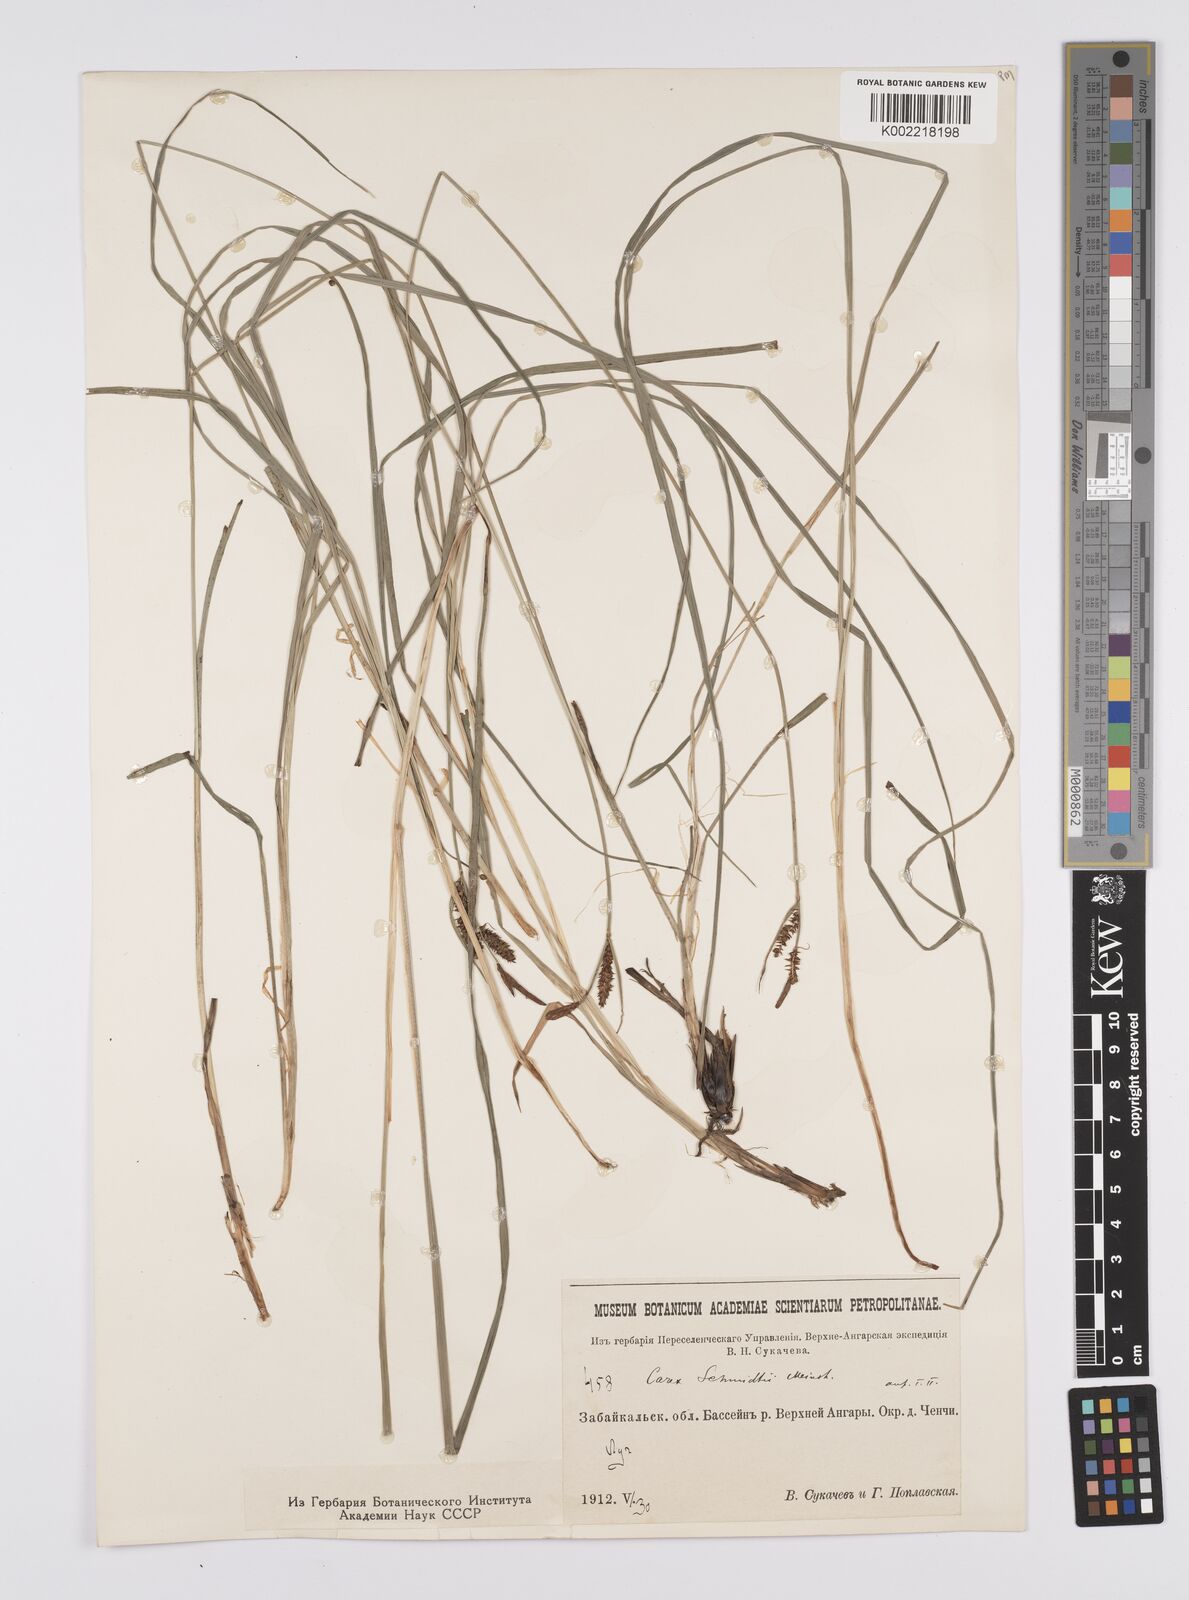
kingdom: Plantae
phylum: Tracheophyta
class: Liliopsida
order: Poales
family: Cyperaceae
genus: Carex
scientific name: Carex schmidtii
